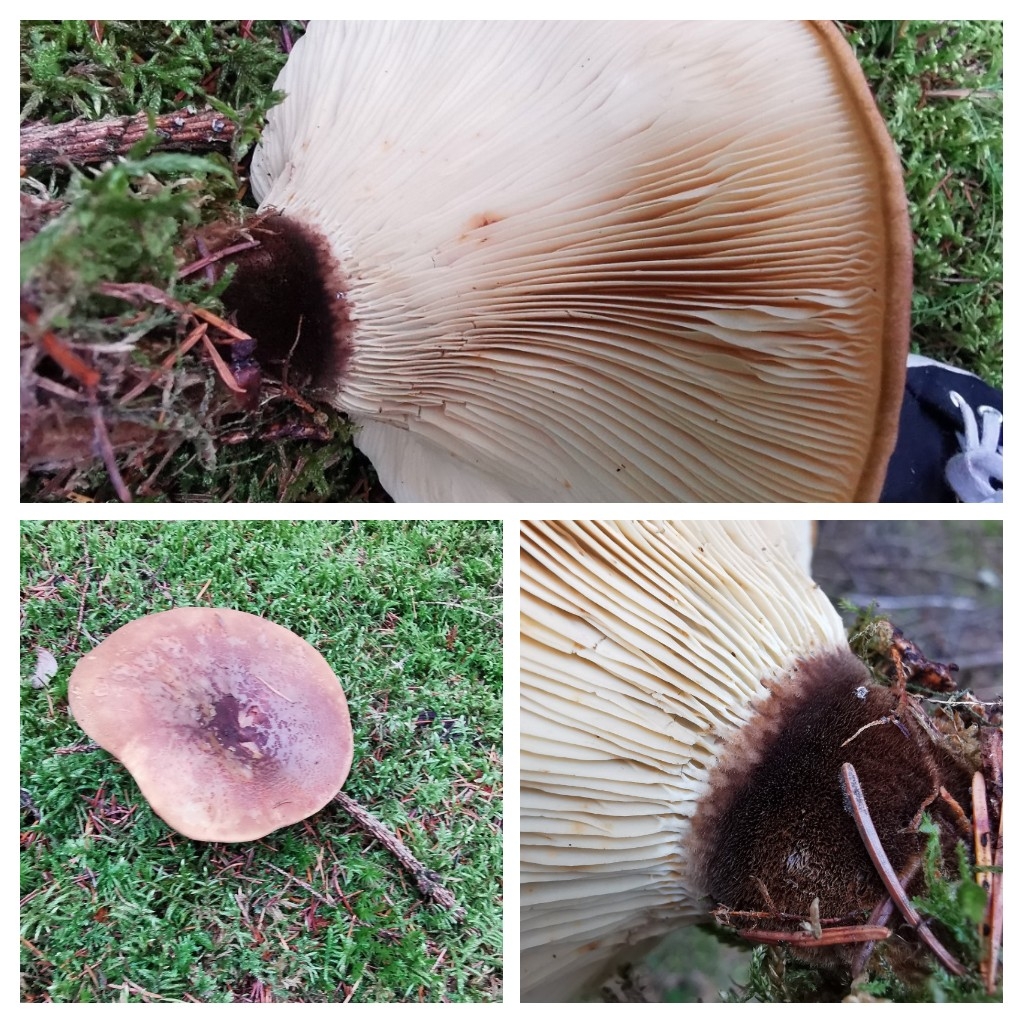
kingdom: Fungi
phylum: Basidiomycota
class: Agaricomycetes
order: Boletales
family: Tapinellaceae
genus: Tapinella
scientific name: Tapinella atrotomentosa
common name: sortfiltet viftesvamp
